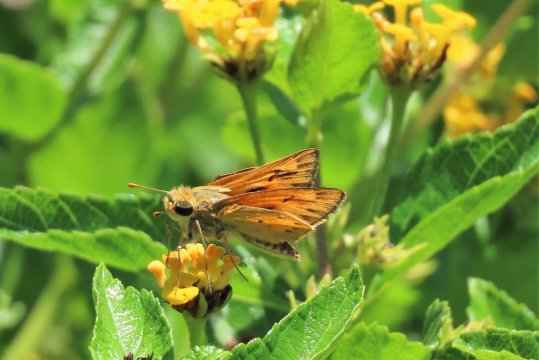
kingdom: Animalia
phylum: Arthropoda
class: Insecta
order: Lepidoptera
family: Hesperiidae
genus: Hylephila
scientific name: Hylephila phyleus
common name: Fiery Skipper
